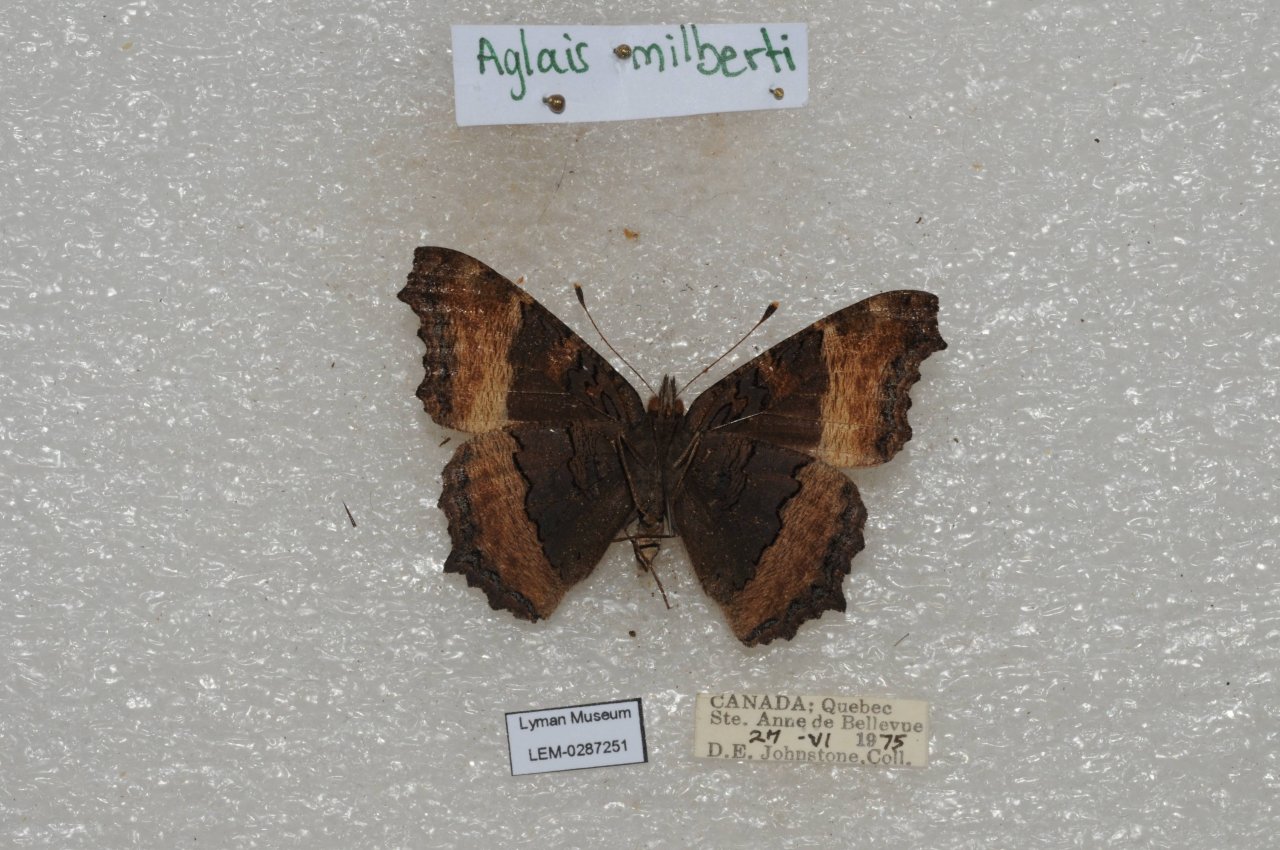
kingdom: Animalia
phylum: Arthropoda
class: Insecta
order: Lepidoptera
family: Nymphalidae
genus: Aglais
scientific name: Aglais milberti
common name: Milbert's Tortoiseshell
